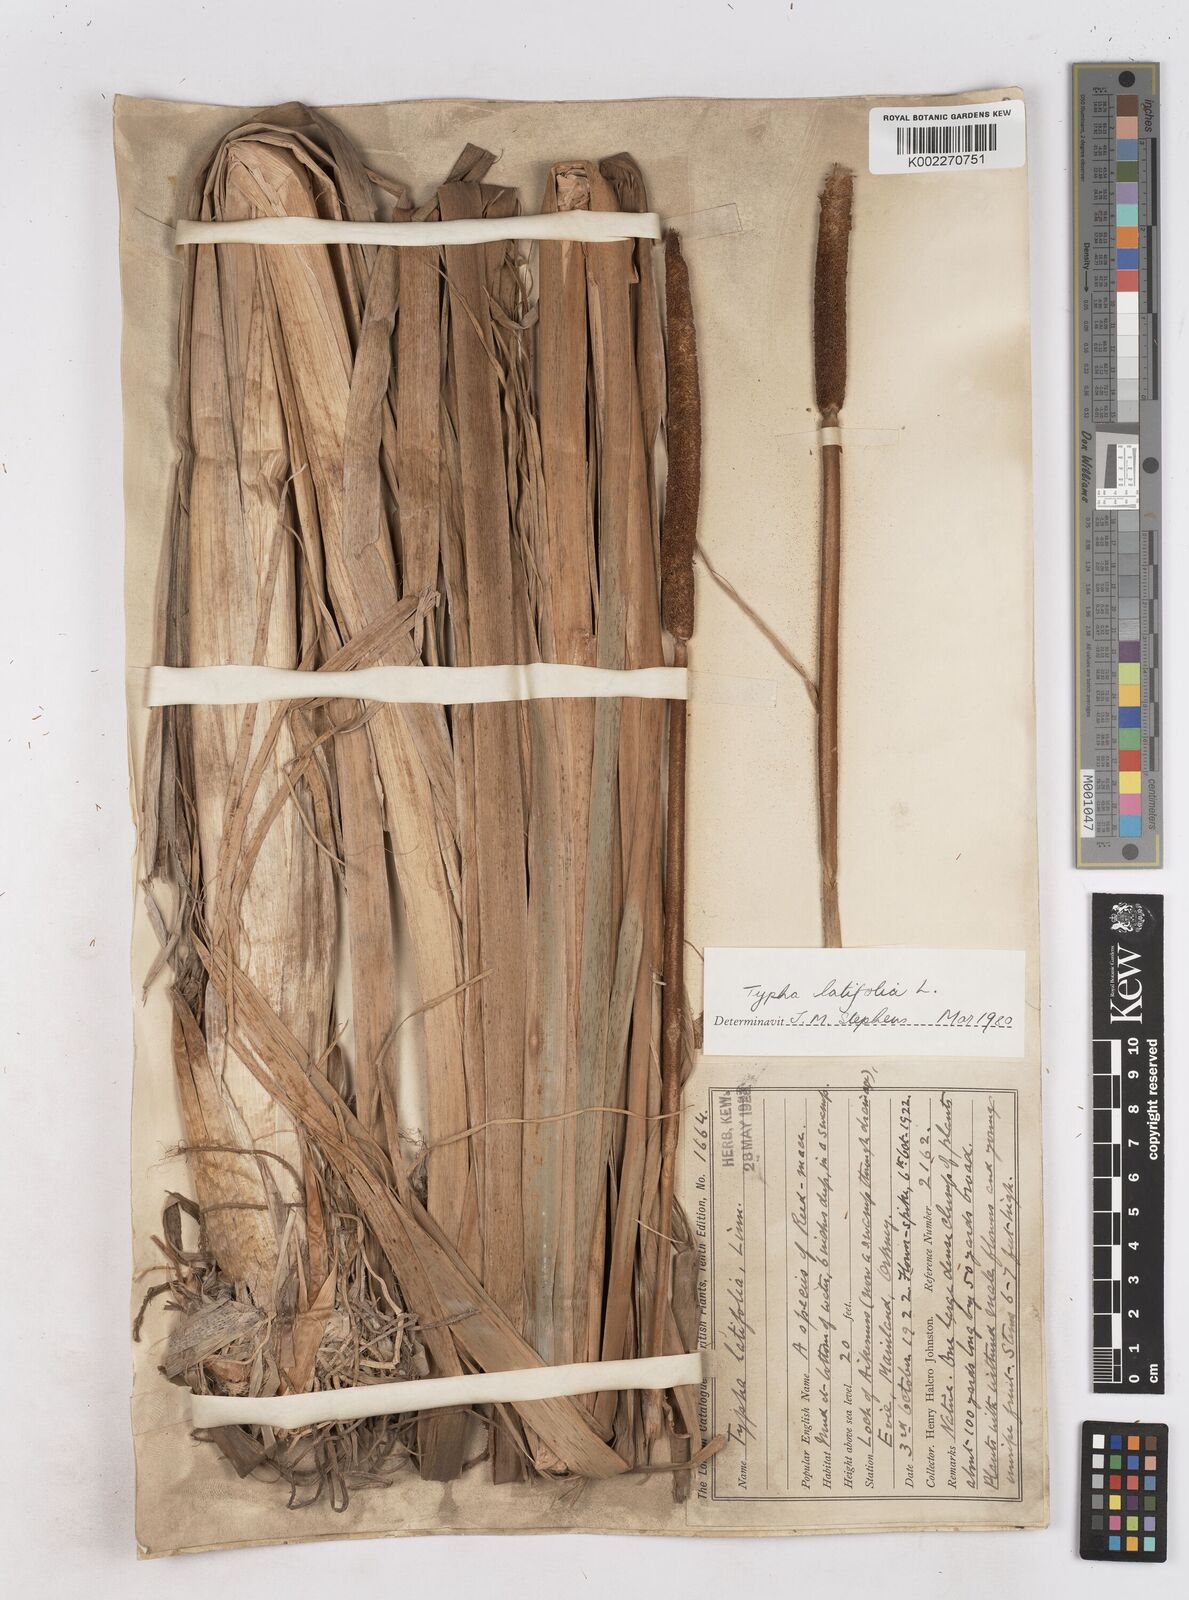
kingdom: Plantae
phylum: Tracheophyta
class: Liliopsida
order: Poales
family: Typhaceae
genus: Typha
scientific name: Typha latifolia
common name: Broadleaf cattail
